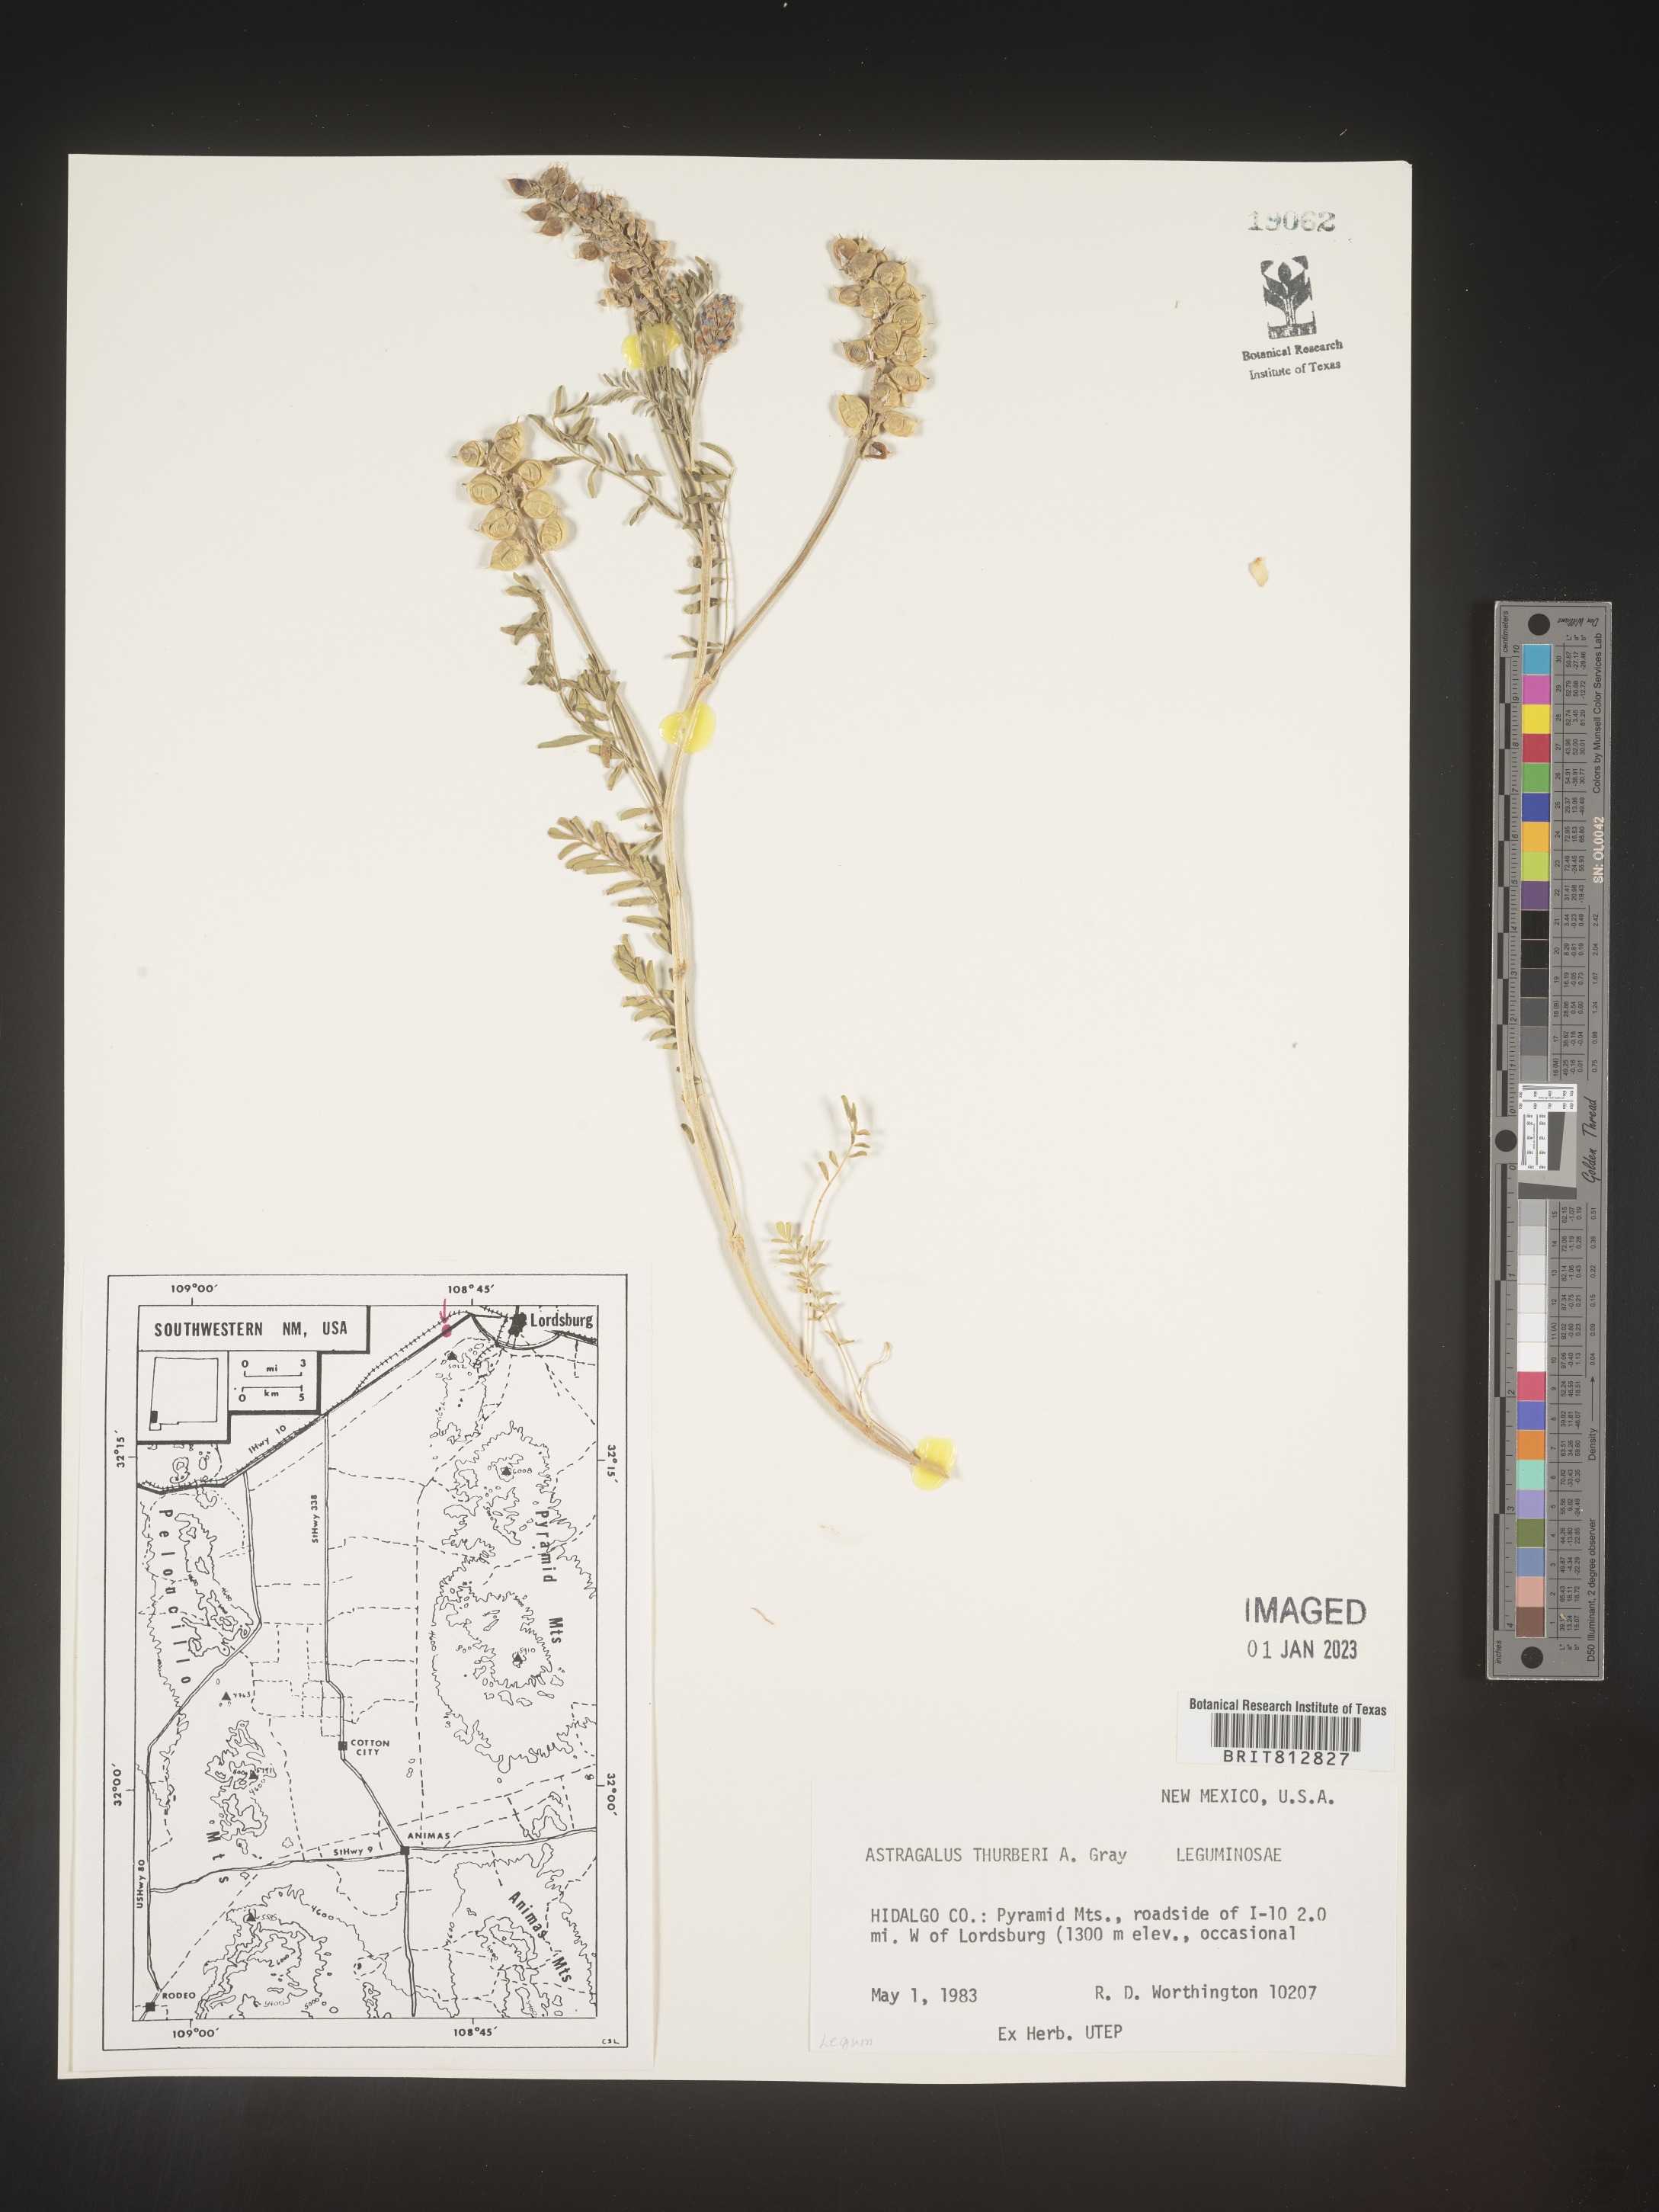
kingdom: Plantae
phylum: Tracheophyta
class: Magnoliopsida
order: Fabales
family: Fabaceae
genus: Astragalus
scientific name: Astragalus
